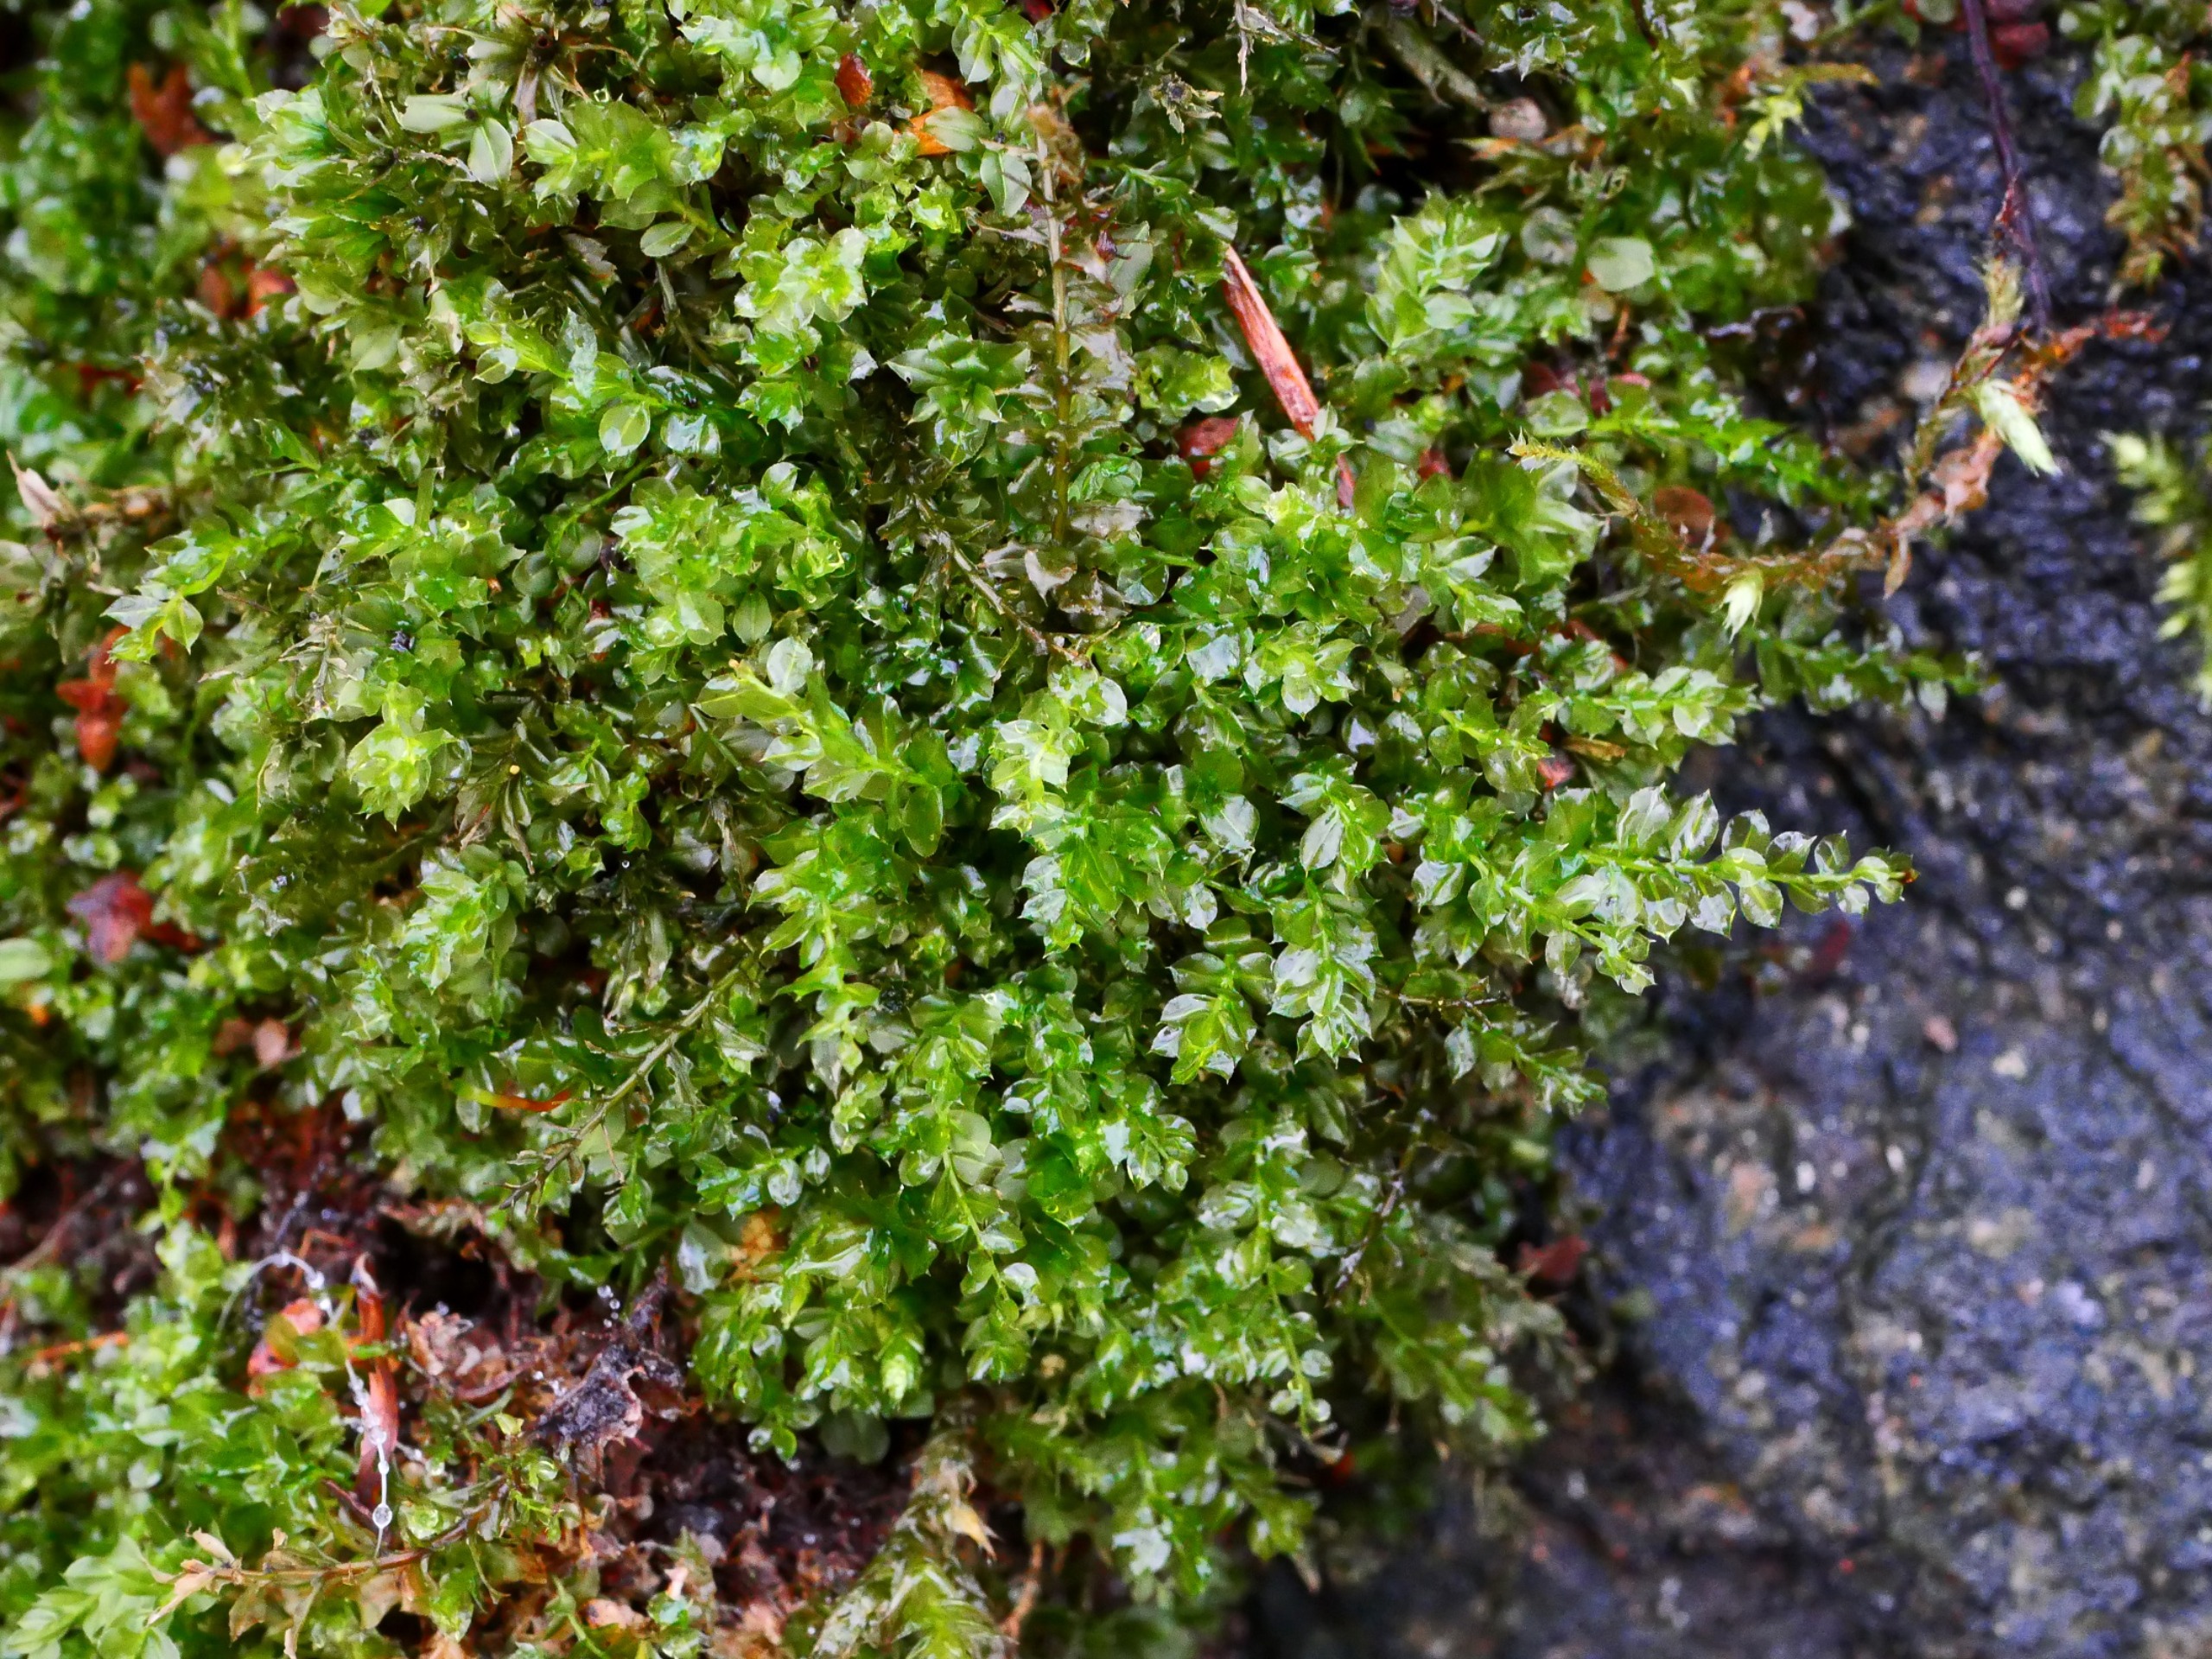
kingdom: Plantae
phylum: Bryophyta
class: Bryopsida
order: Bryales
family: Mniaceae
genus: Plagiomnium
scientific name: Plagiomnium cuspidatum
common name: Gærde-krybstjerne
